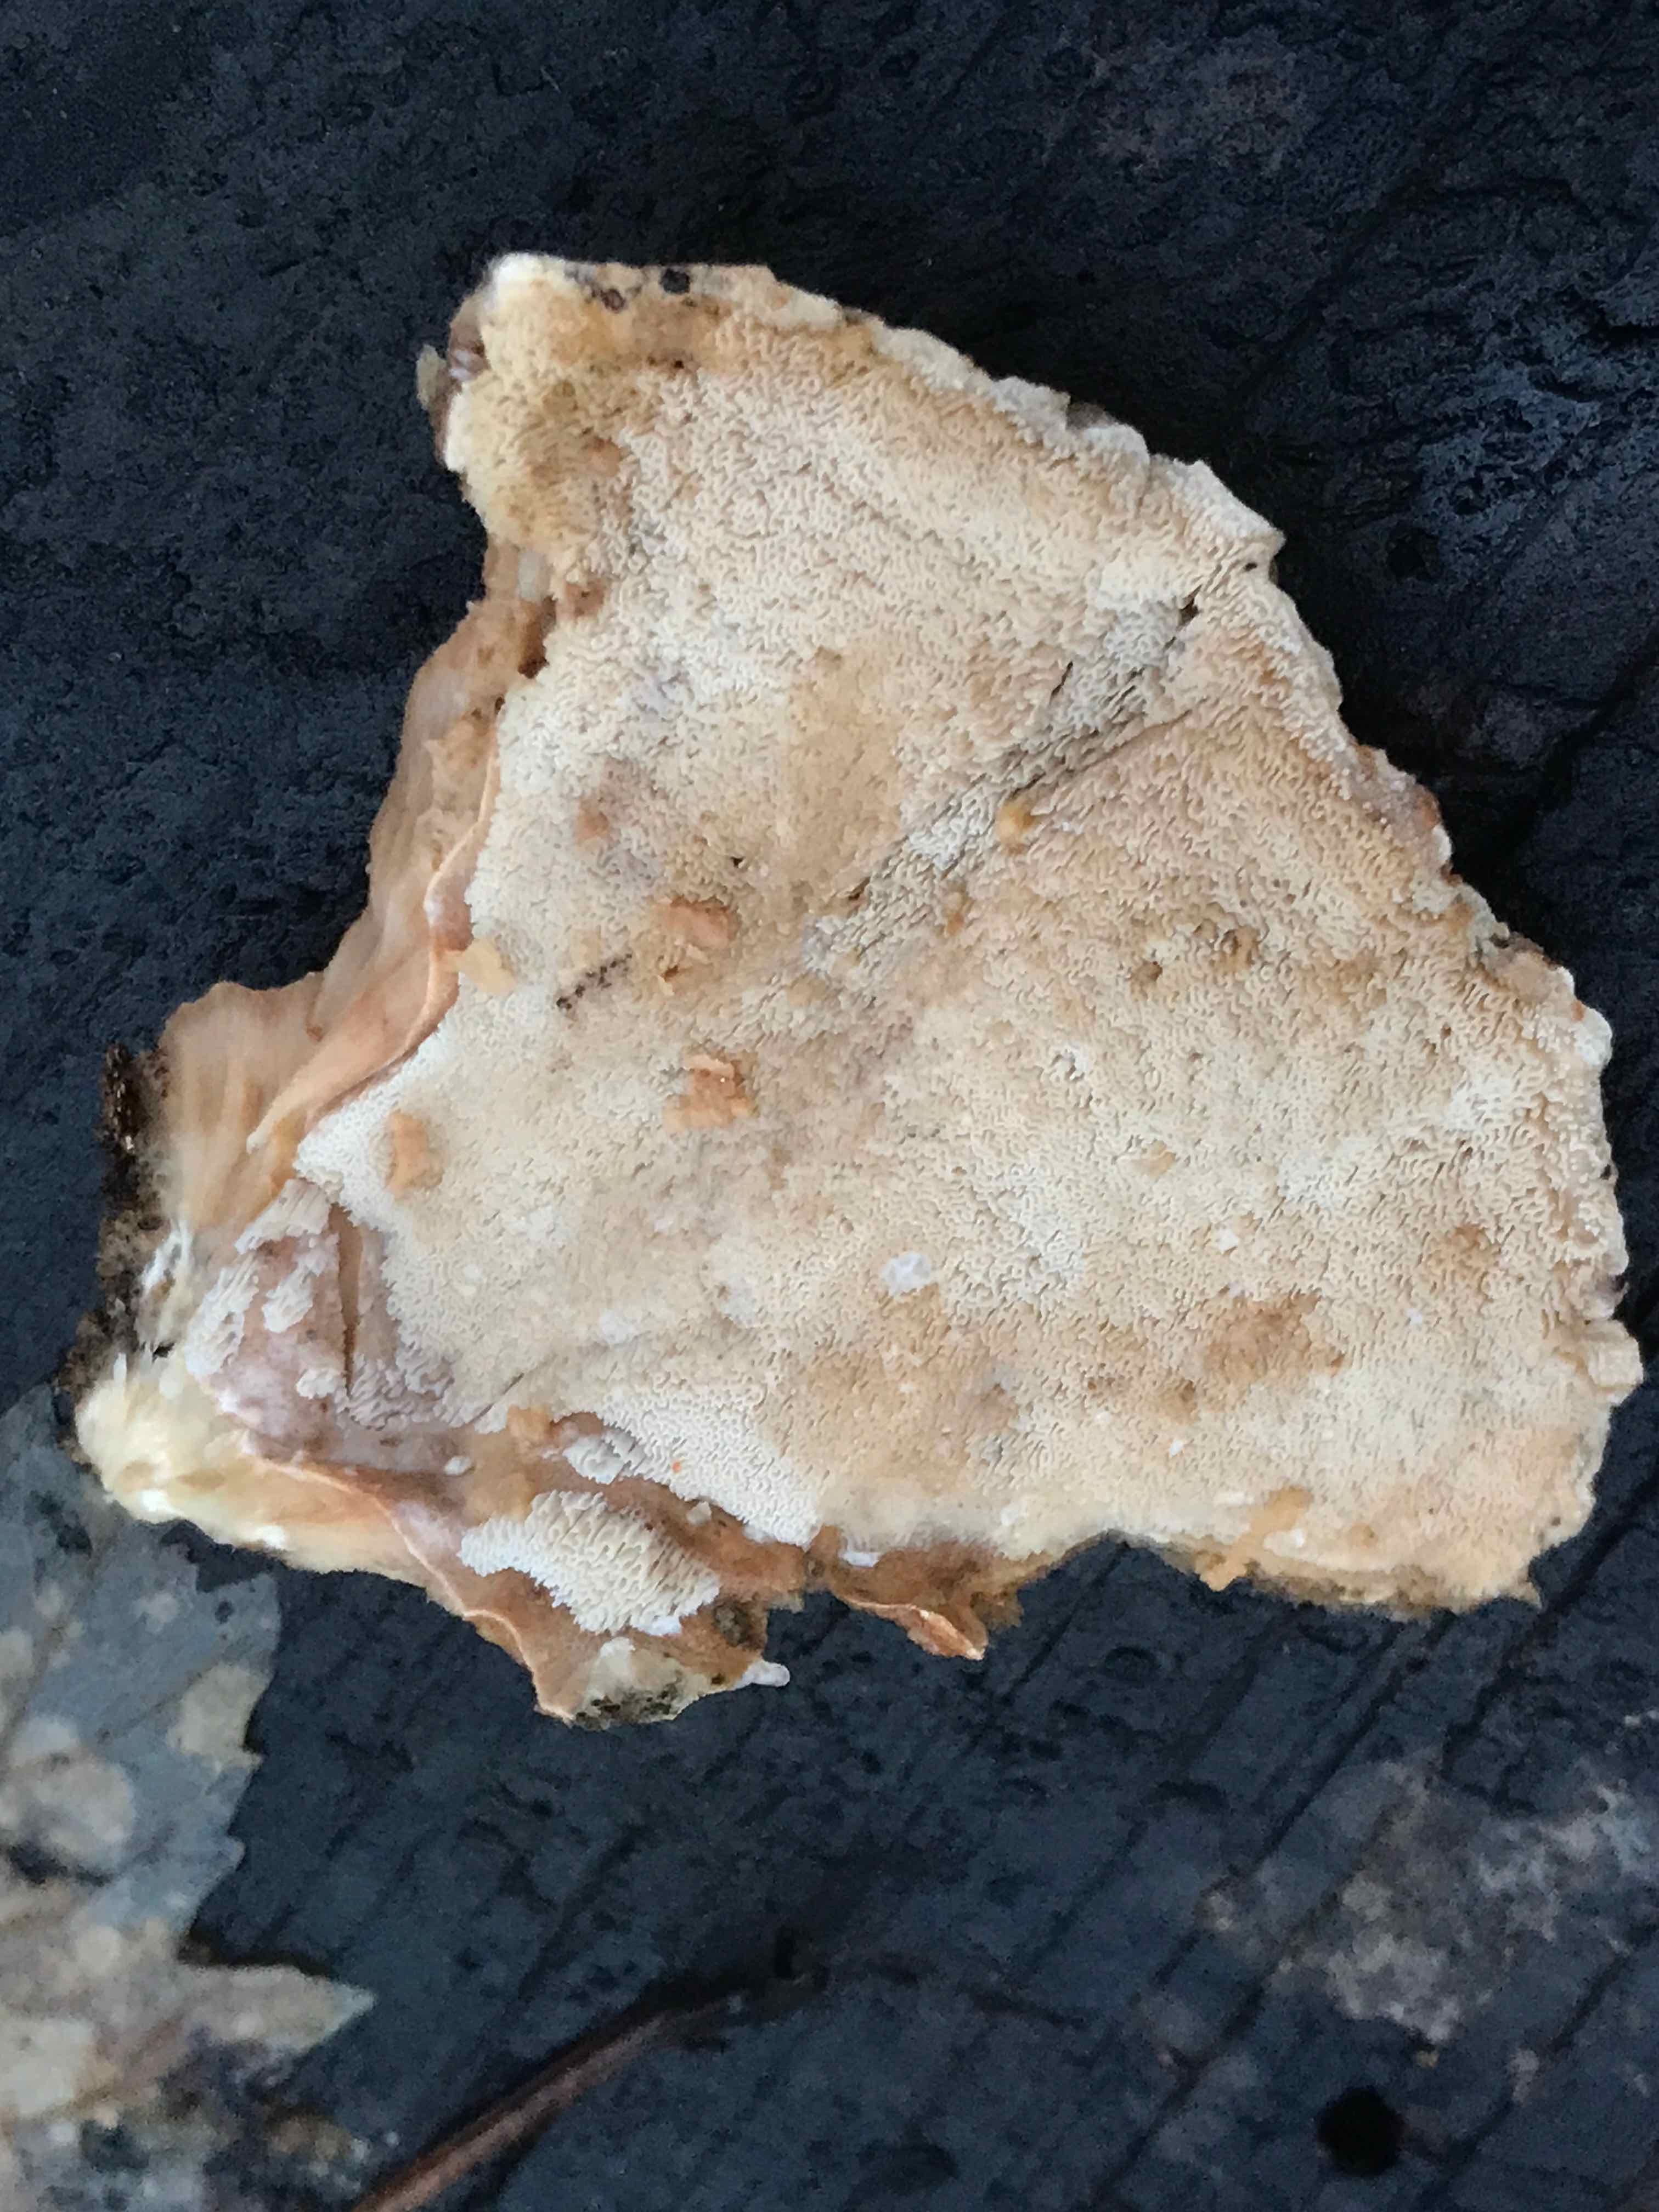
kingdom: Fungi
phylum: Basidiomycota
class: Agaricomycetes
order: Polyporales
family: Phanerochaetaceae
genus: Bjerkandera
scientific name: Bjerkandera fumosa
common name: grågul sodporesvamp
